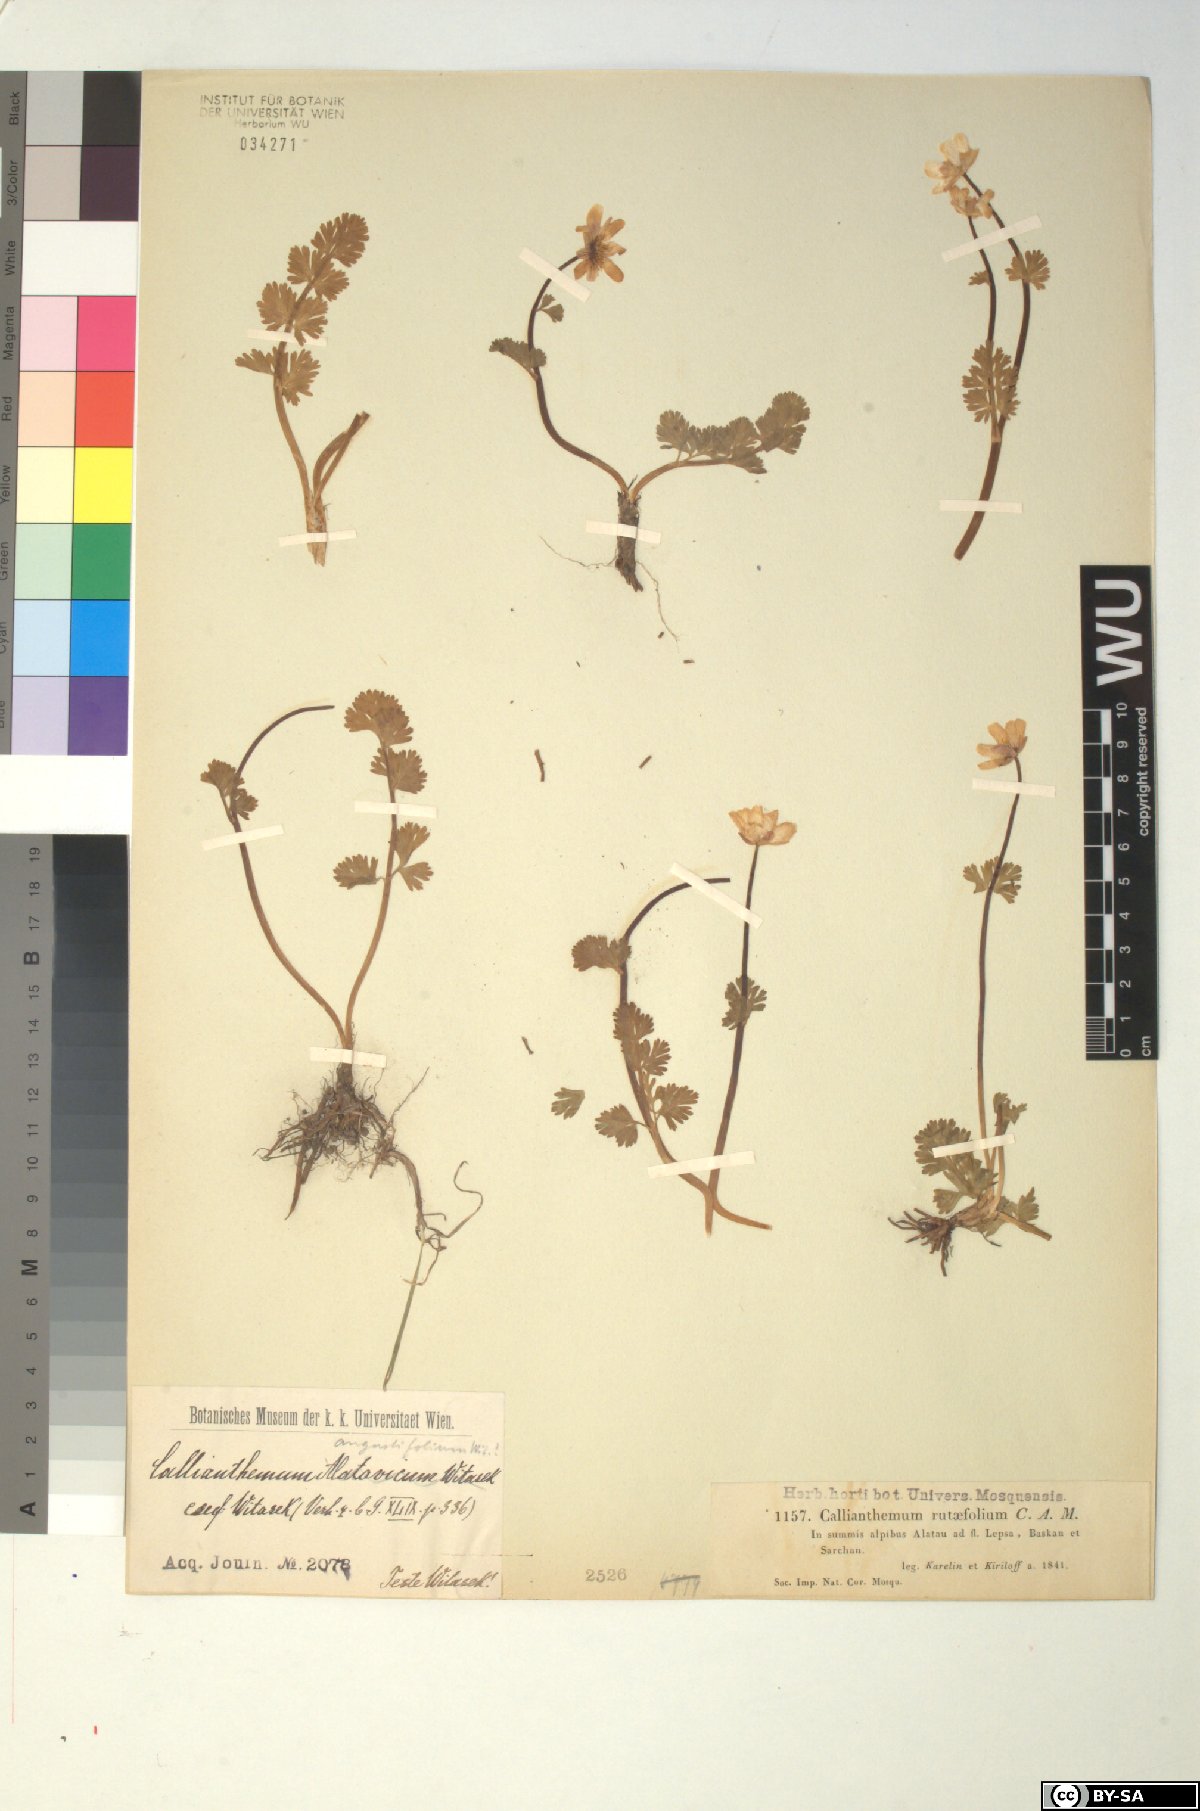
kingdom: Plantae
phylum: Tracheophyta
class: Magnoliopsida
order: Ranunculales
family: Ranunculaceae
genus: Callianthemum
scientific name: Callianthemum angustifolium
